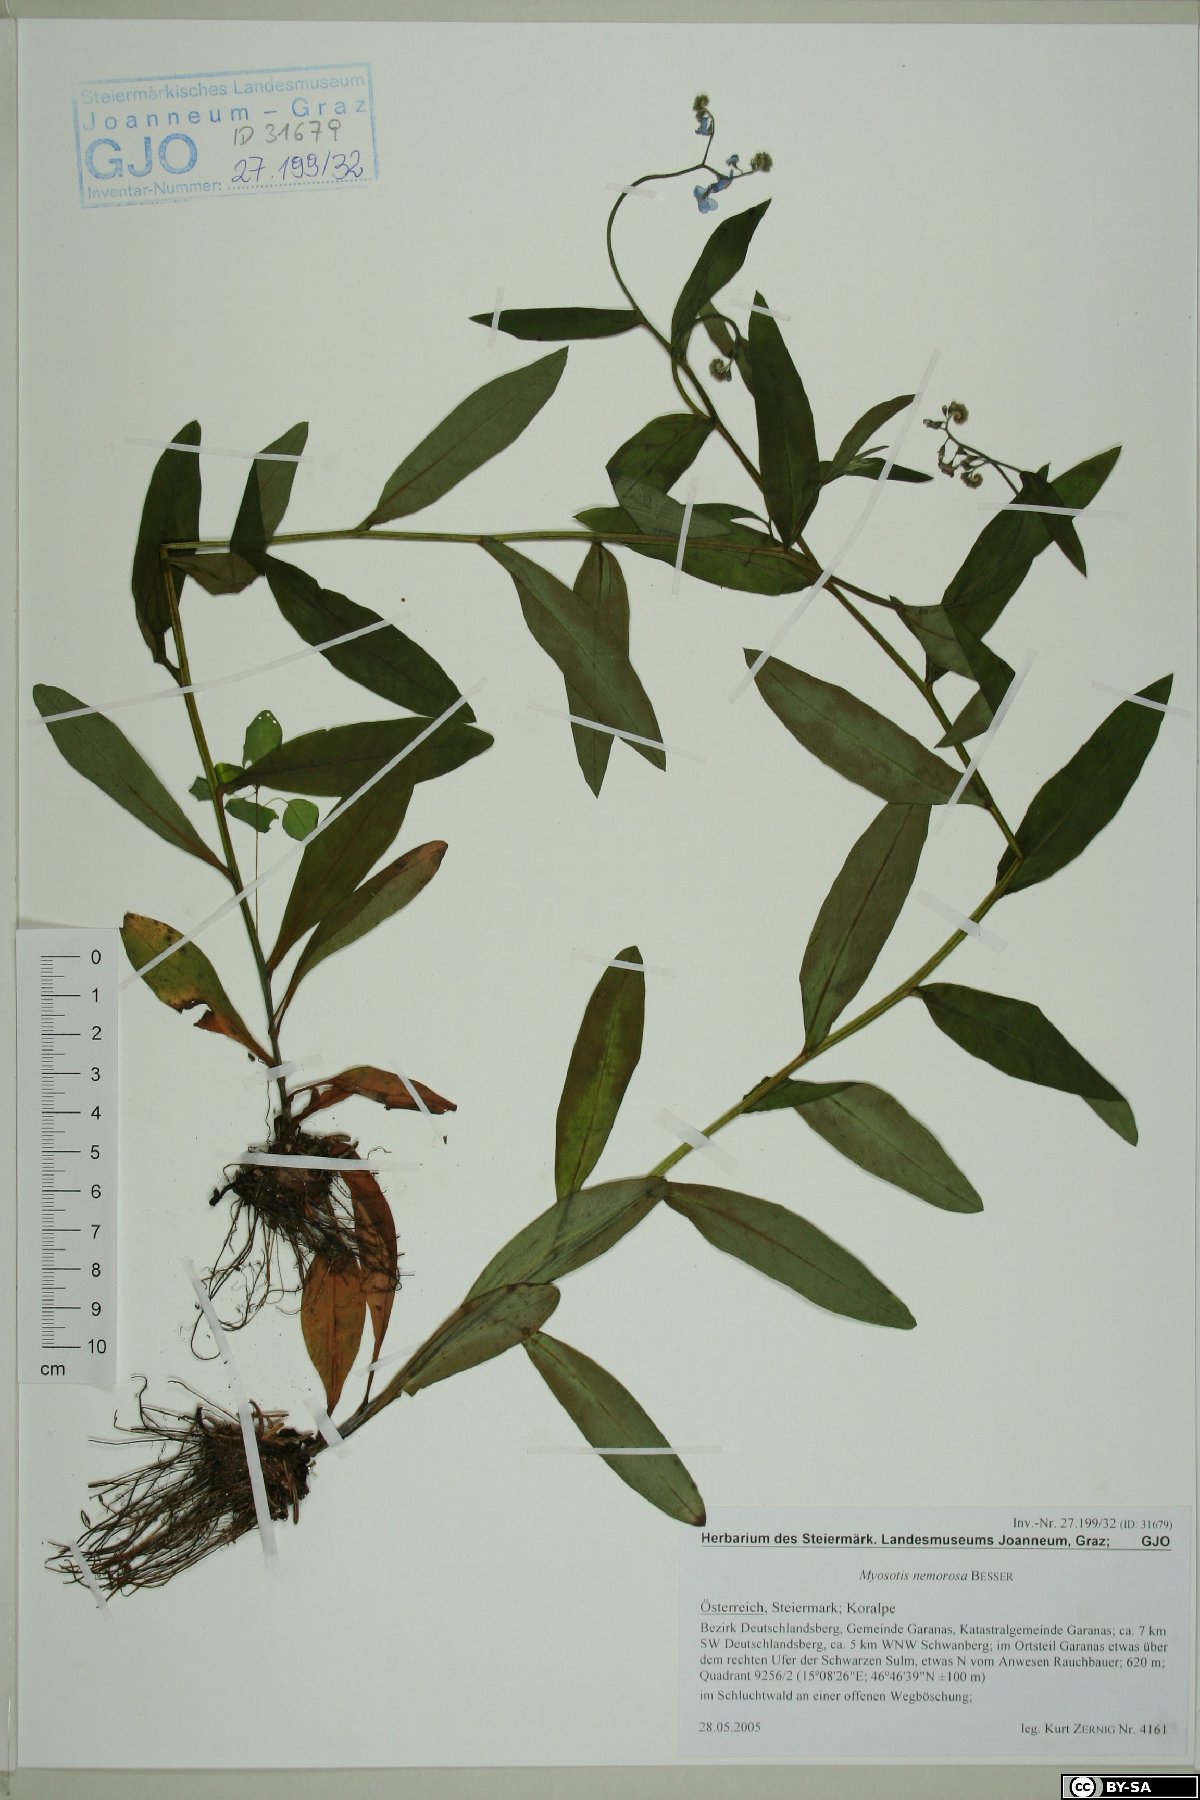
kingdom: Plantae
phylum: Tracheophyta
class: Magnoliopsida
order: Boraginales
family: Boraginaceae
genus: Myosotis
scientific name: Myosotis nemorosa
